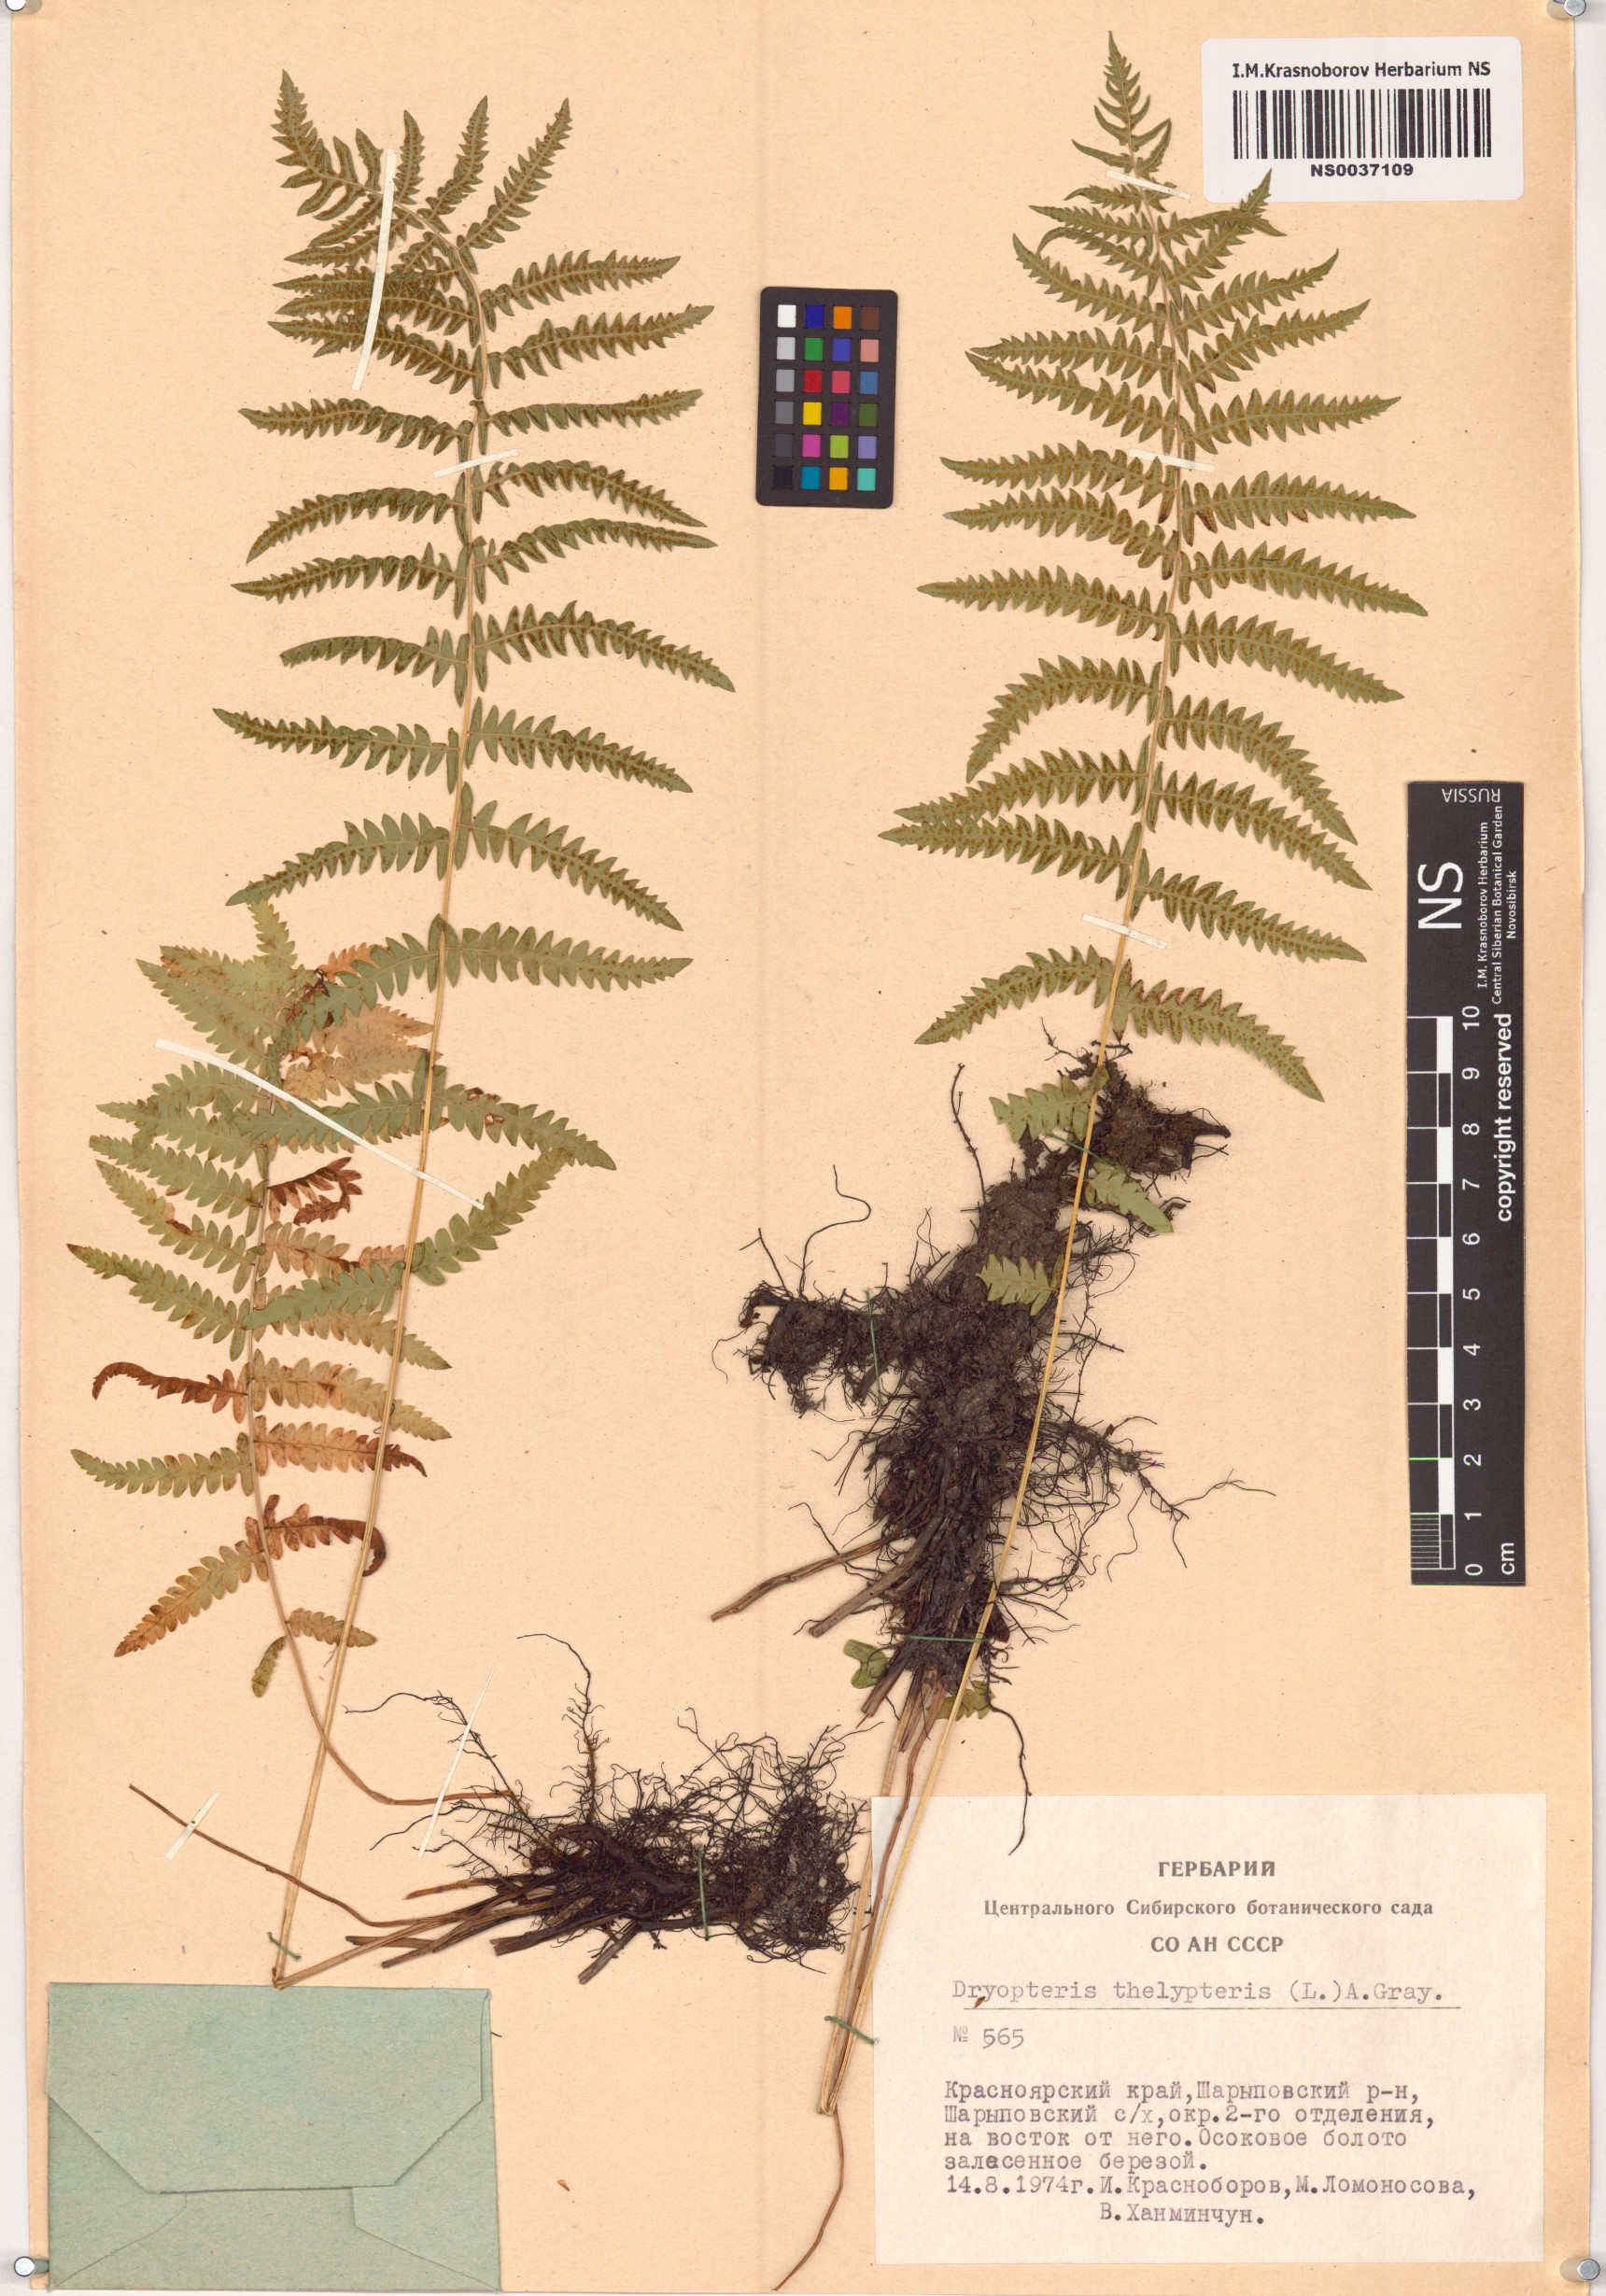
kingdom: Plantae
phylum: Tracheophyta
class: Polypodiopsida
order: Polypodiales
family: Thelypteridaceae
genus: Thelypteris
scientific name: Thelypteris palustris
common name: Marsh fern
